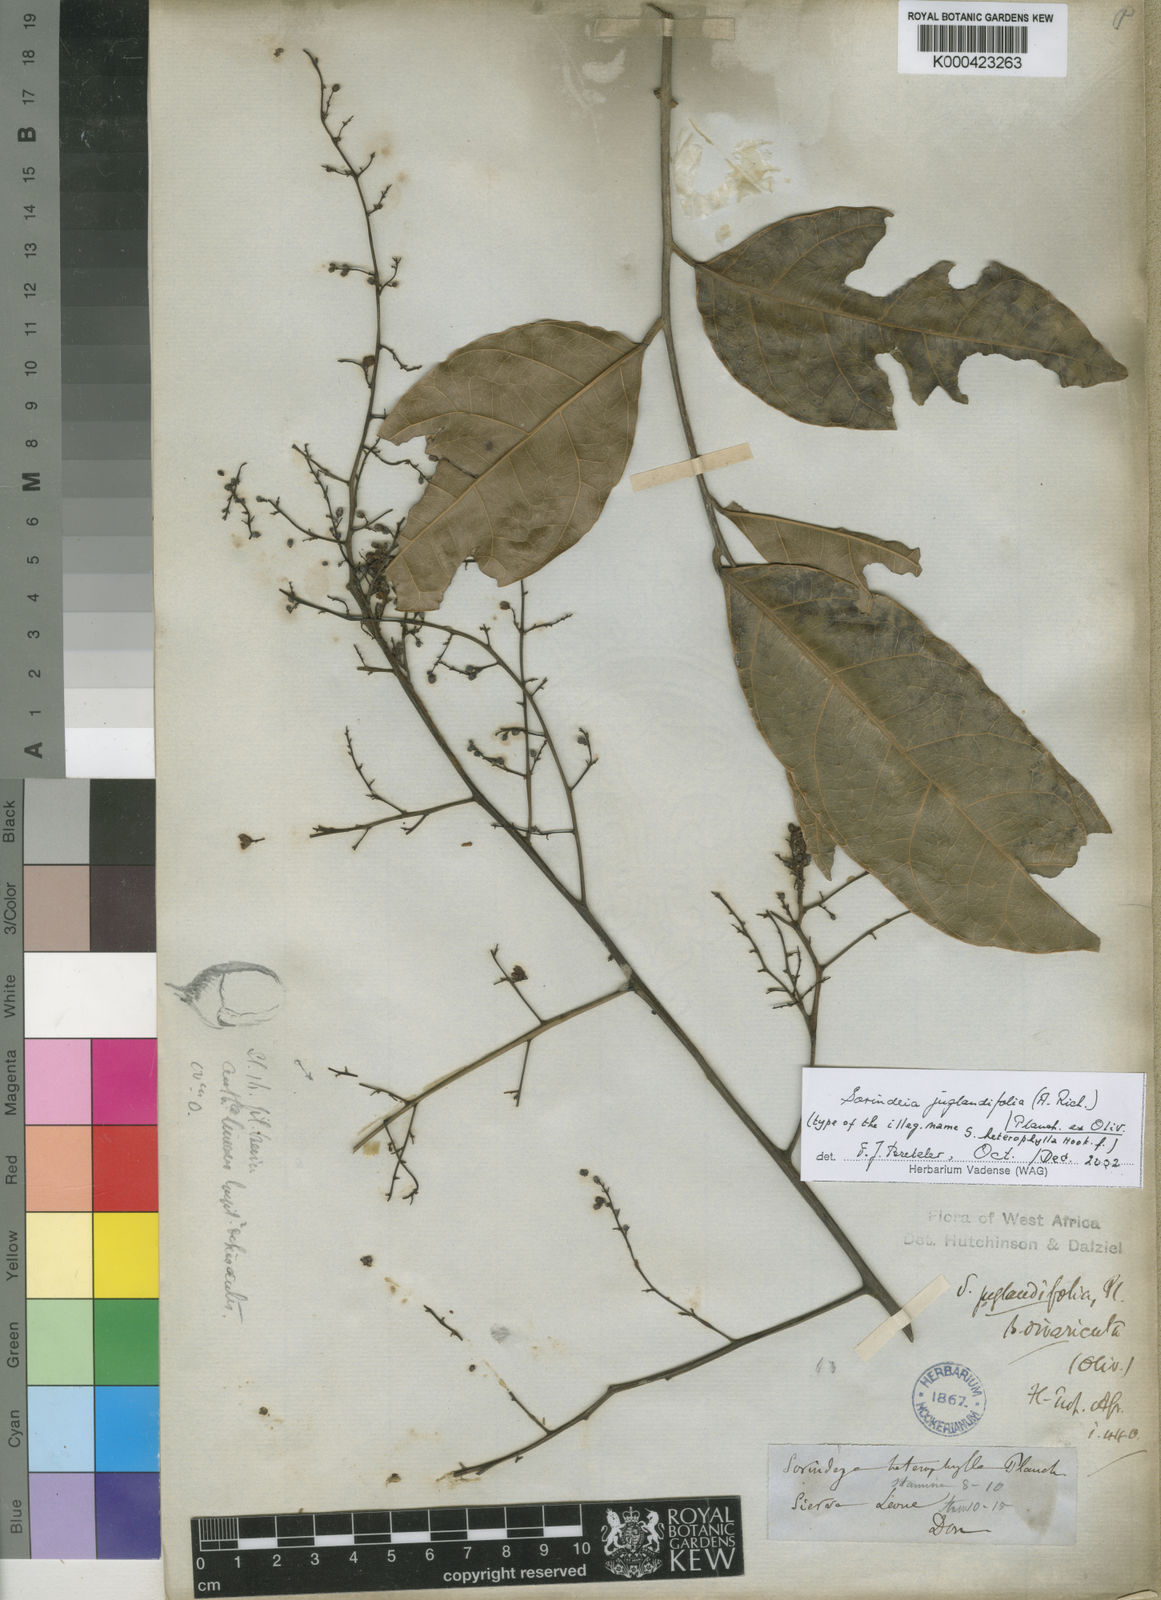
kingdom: Plantae
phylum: Tracheophyta
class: Magnoliopsida
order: Sapindales
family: Anacardiaceae
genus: Sorindeia
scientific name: Sorindeia juglandifolia
